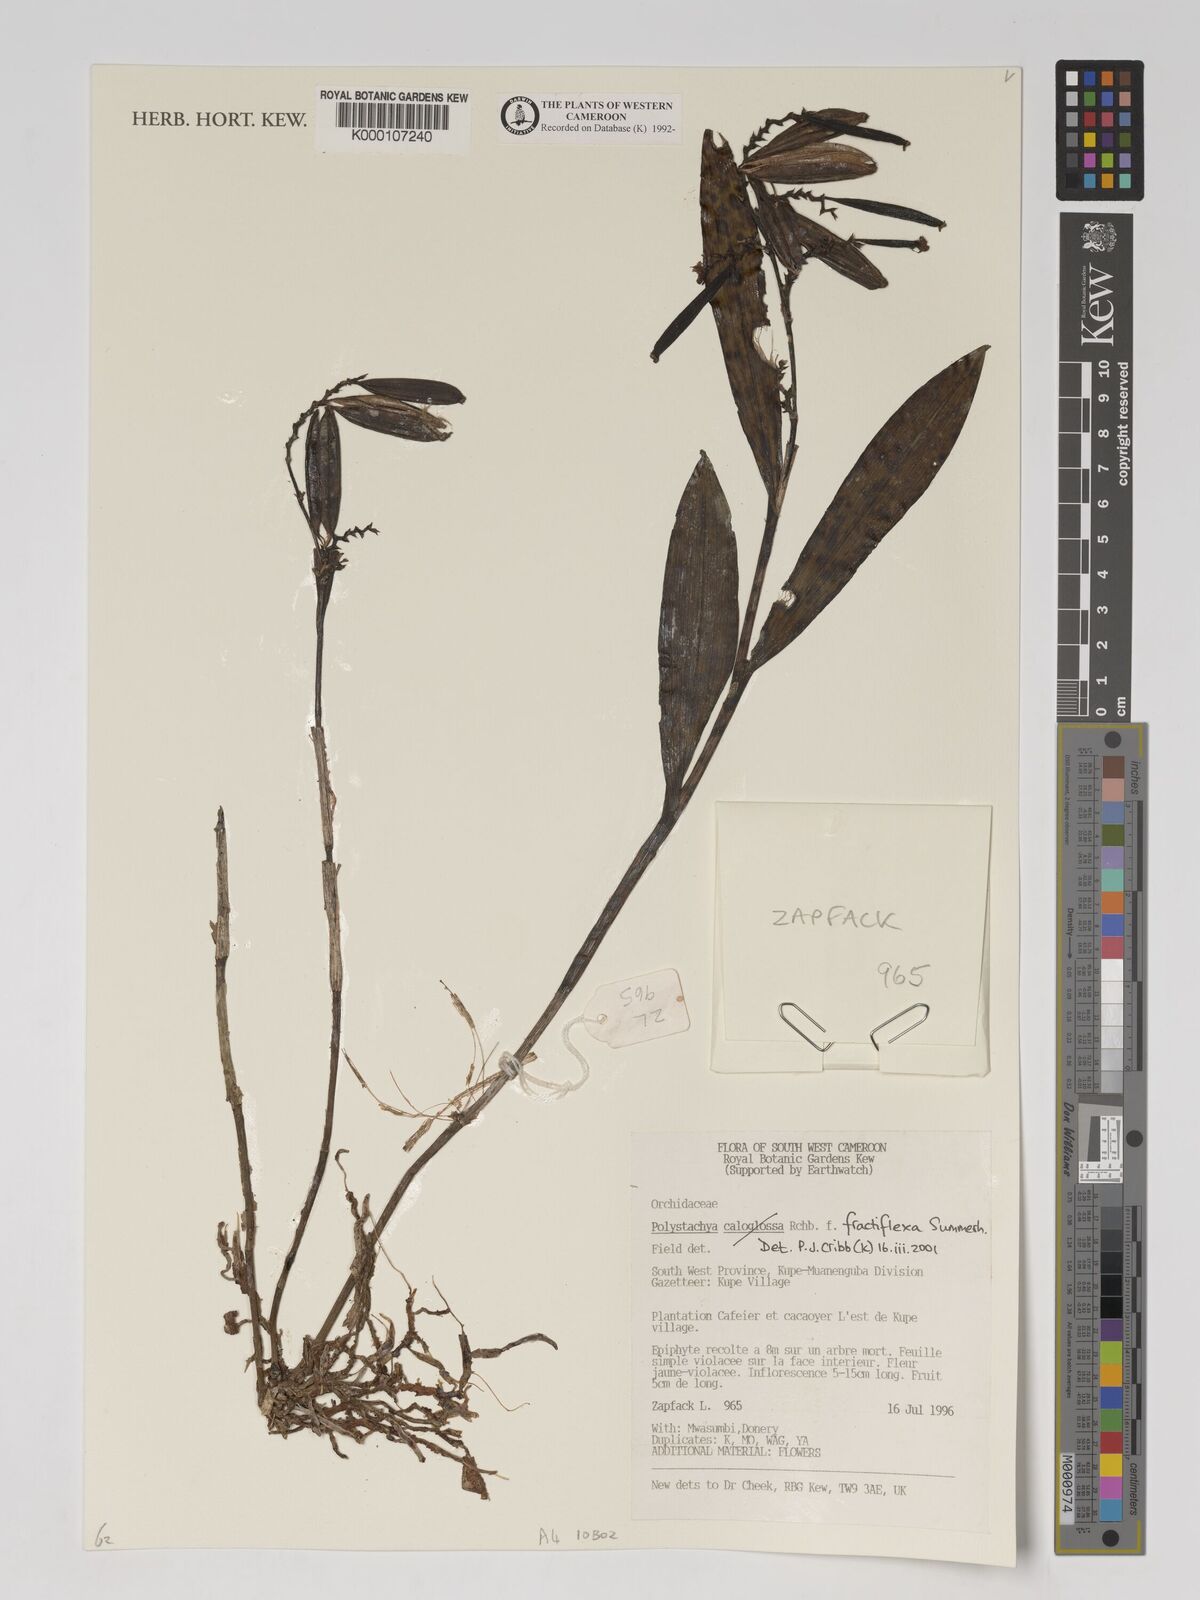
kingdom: Plantae
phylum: Tracheophyta
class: Liliopsida
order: Asparagales
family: Orchidaceae
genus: Polystachya
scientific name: Polystachya fractiflexa
